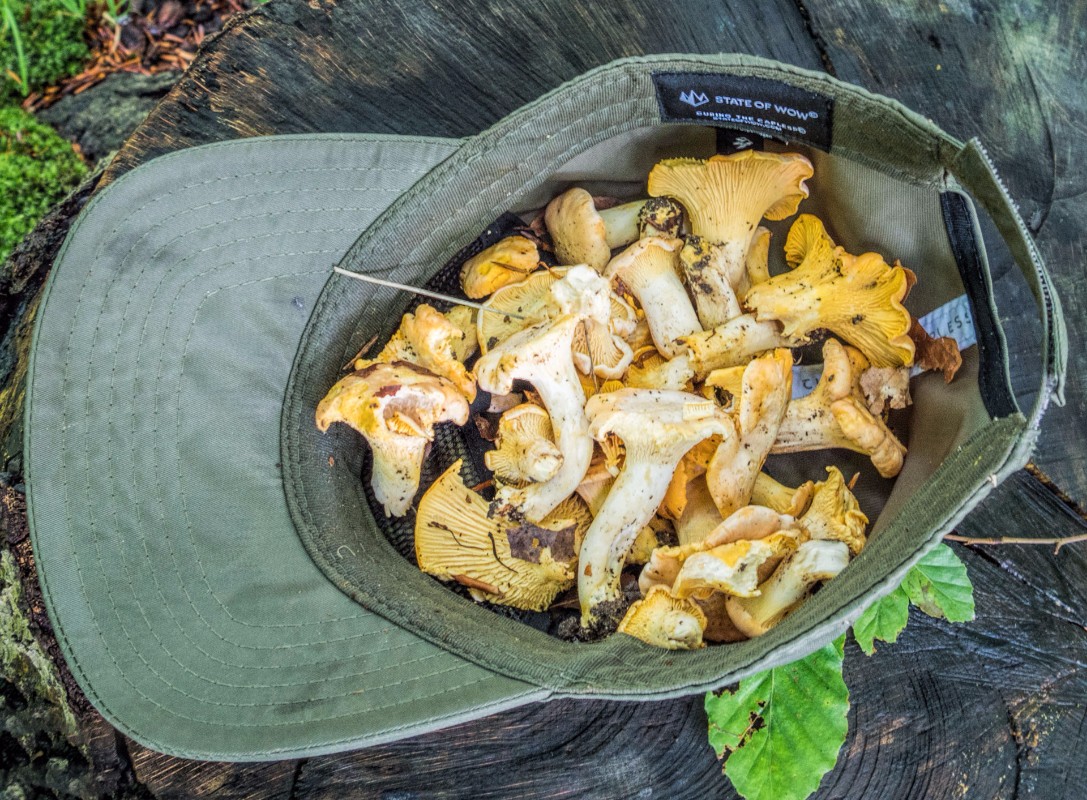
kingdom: Fungi
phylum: Basidiomycota
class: Agaricomycetes
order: Cantharellales
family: Hydnaceae
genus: Cantharellus
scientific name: Cantharellus pallens
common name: bleg kantarel
